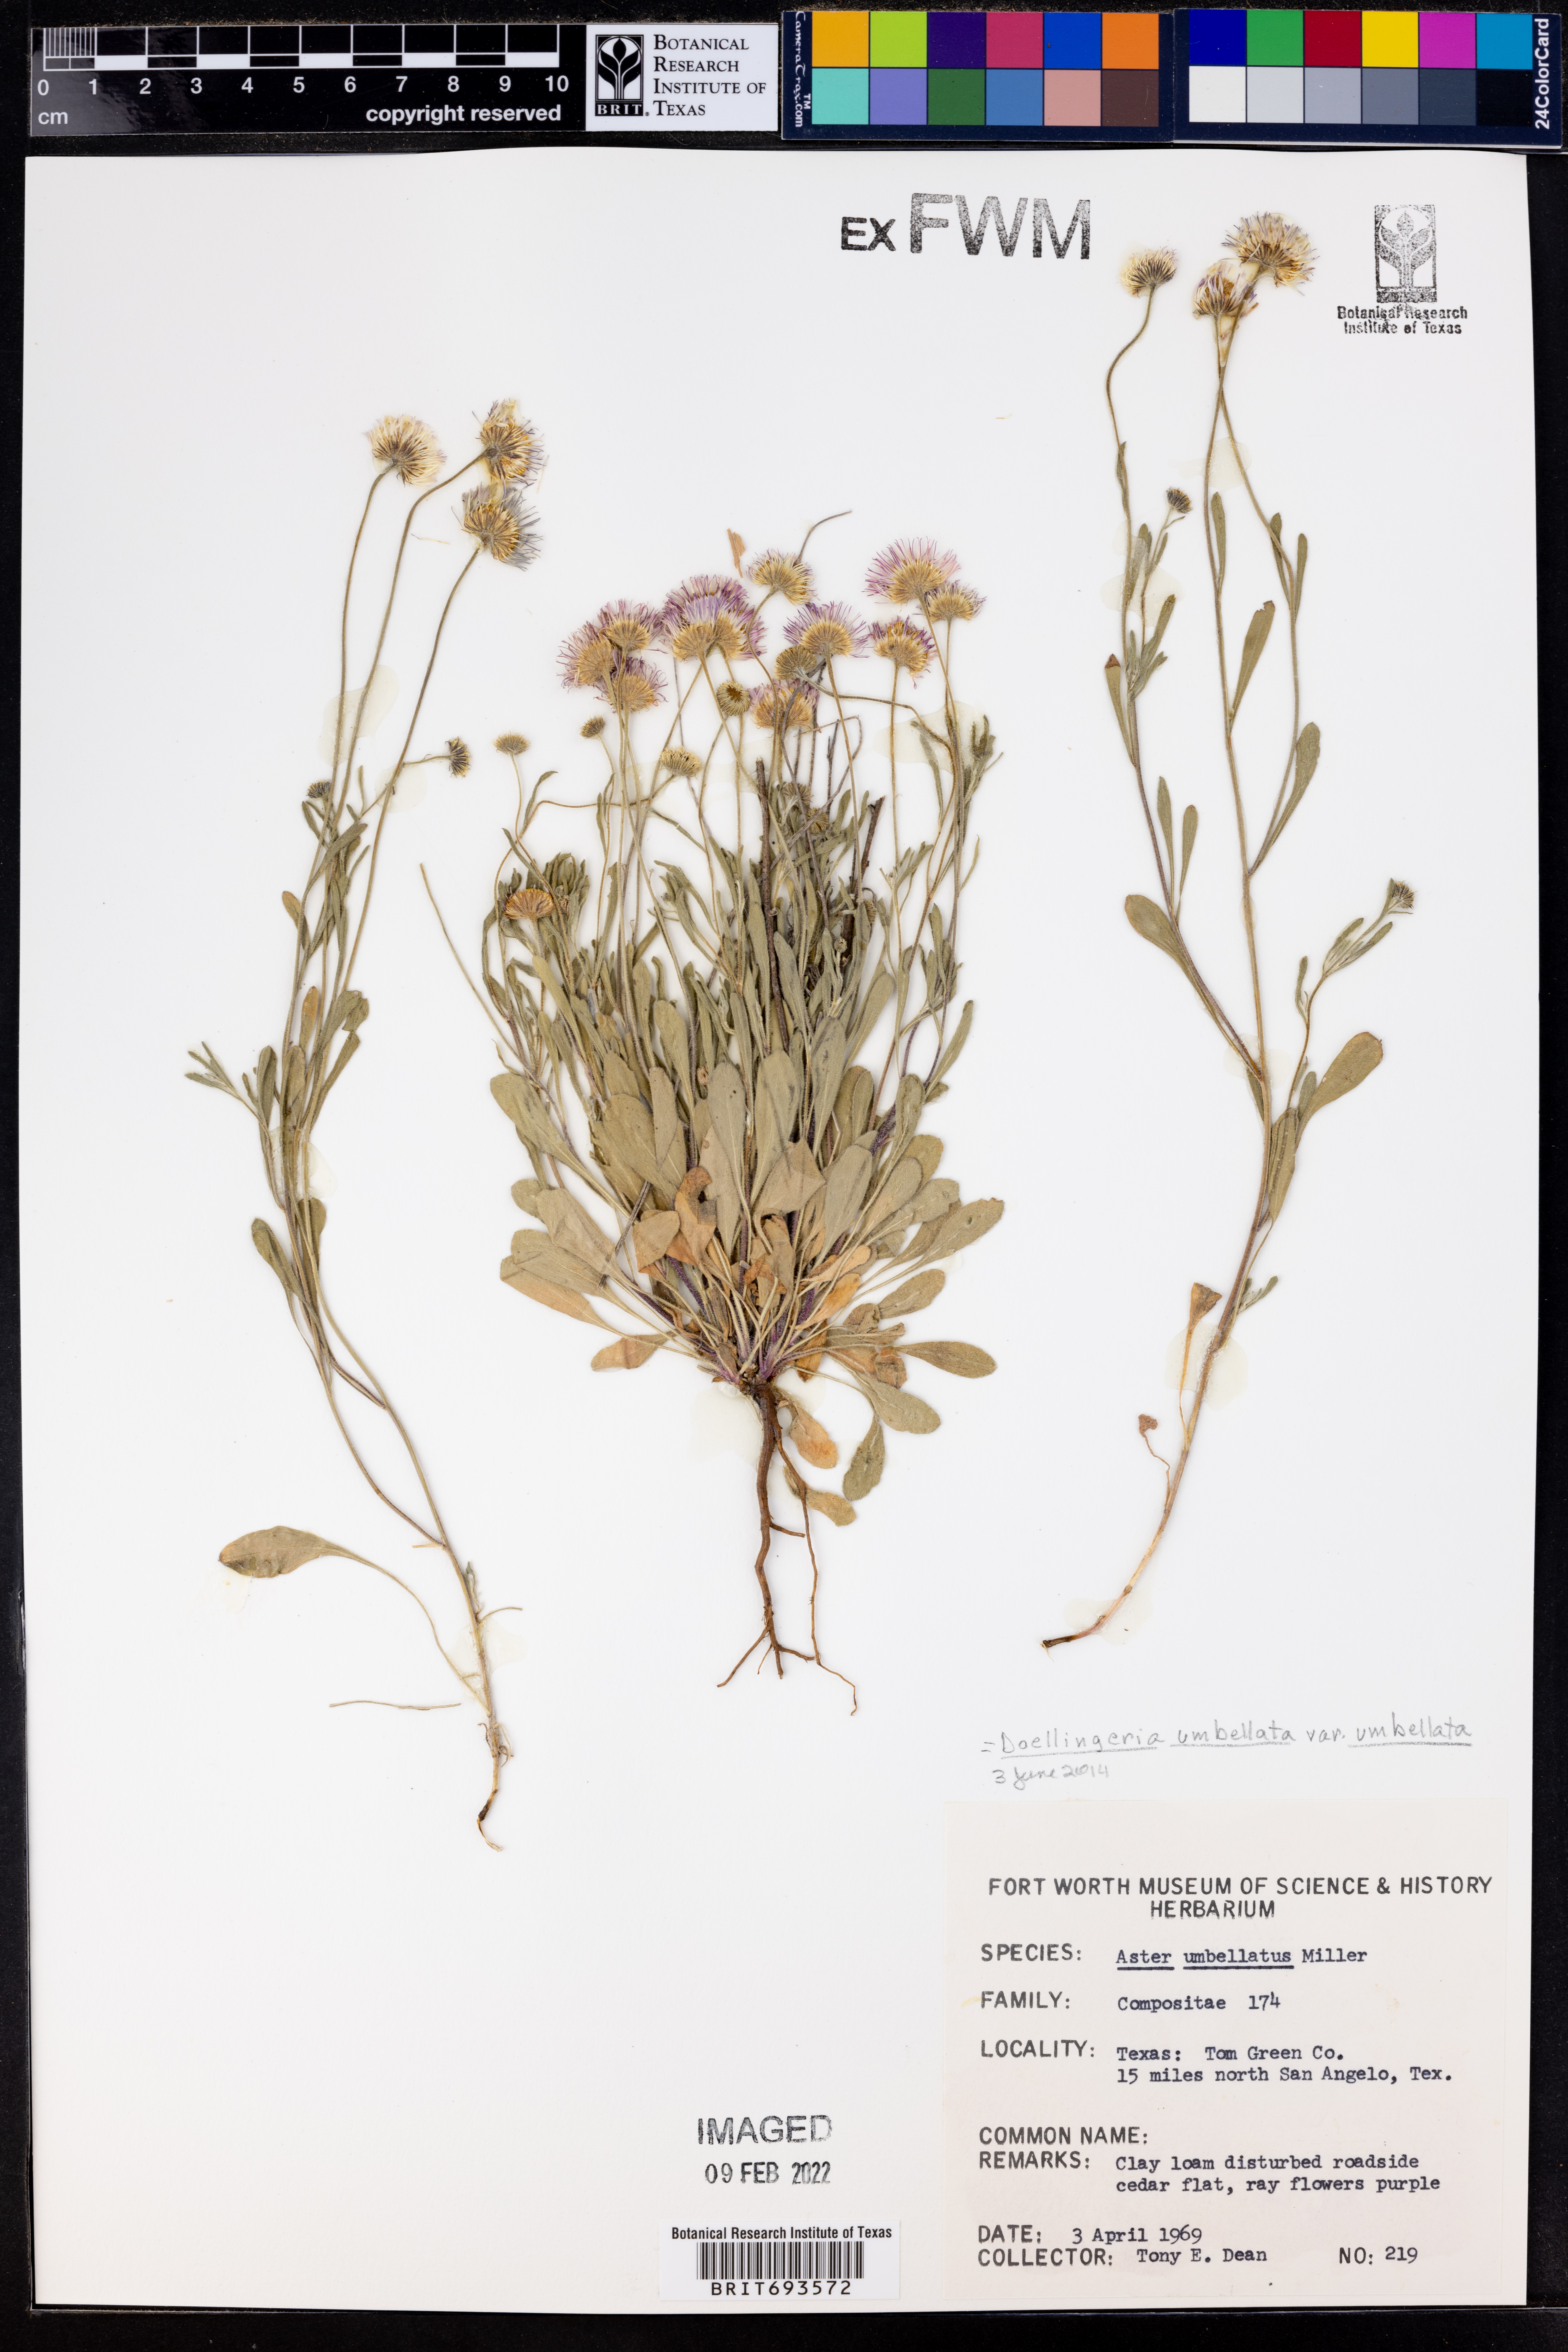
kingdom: Plantae
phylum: Tracheophyta
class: Magnoliopsida
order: Asterales
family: Asteraceae
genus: Doellingeria
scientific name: Doellingeria umbellata
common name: Flat-top white aster
